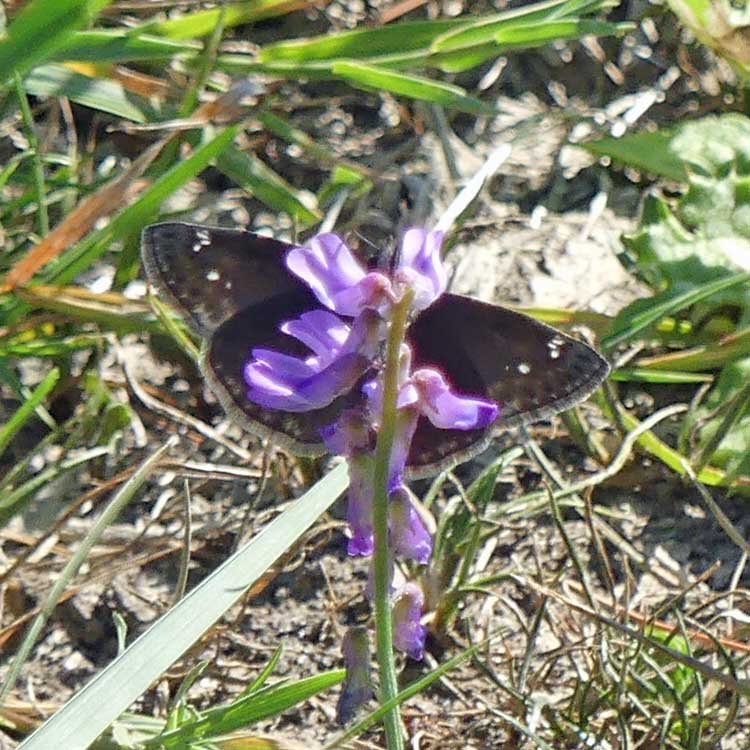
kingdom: Animalia
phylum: Arthropoda
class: Insecta
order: Lepidoptera
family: Hesperiidae
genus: Gesta
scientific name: Gesta
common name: Wild Indigo Duskywing
